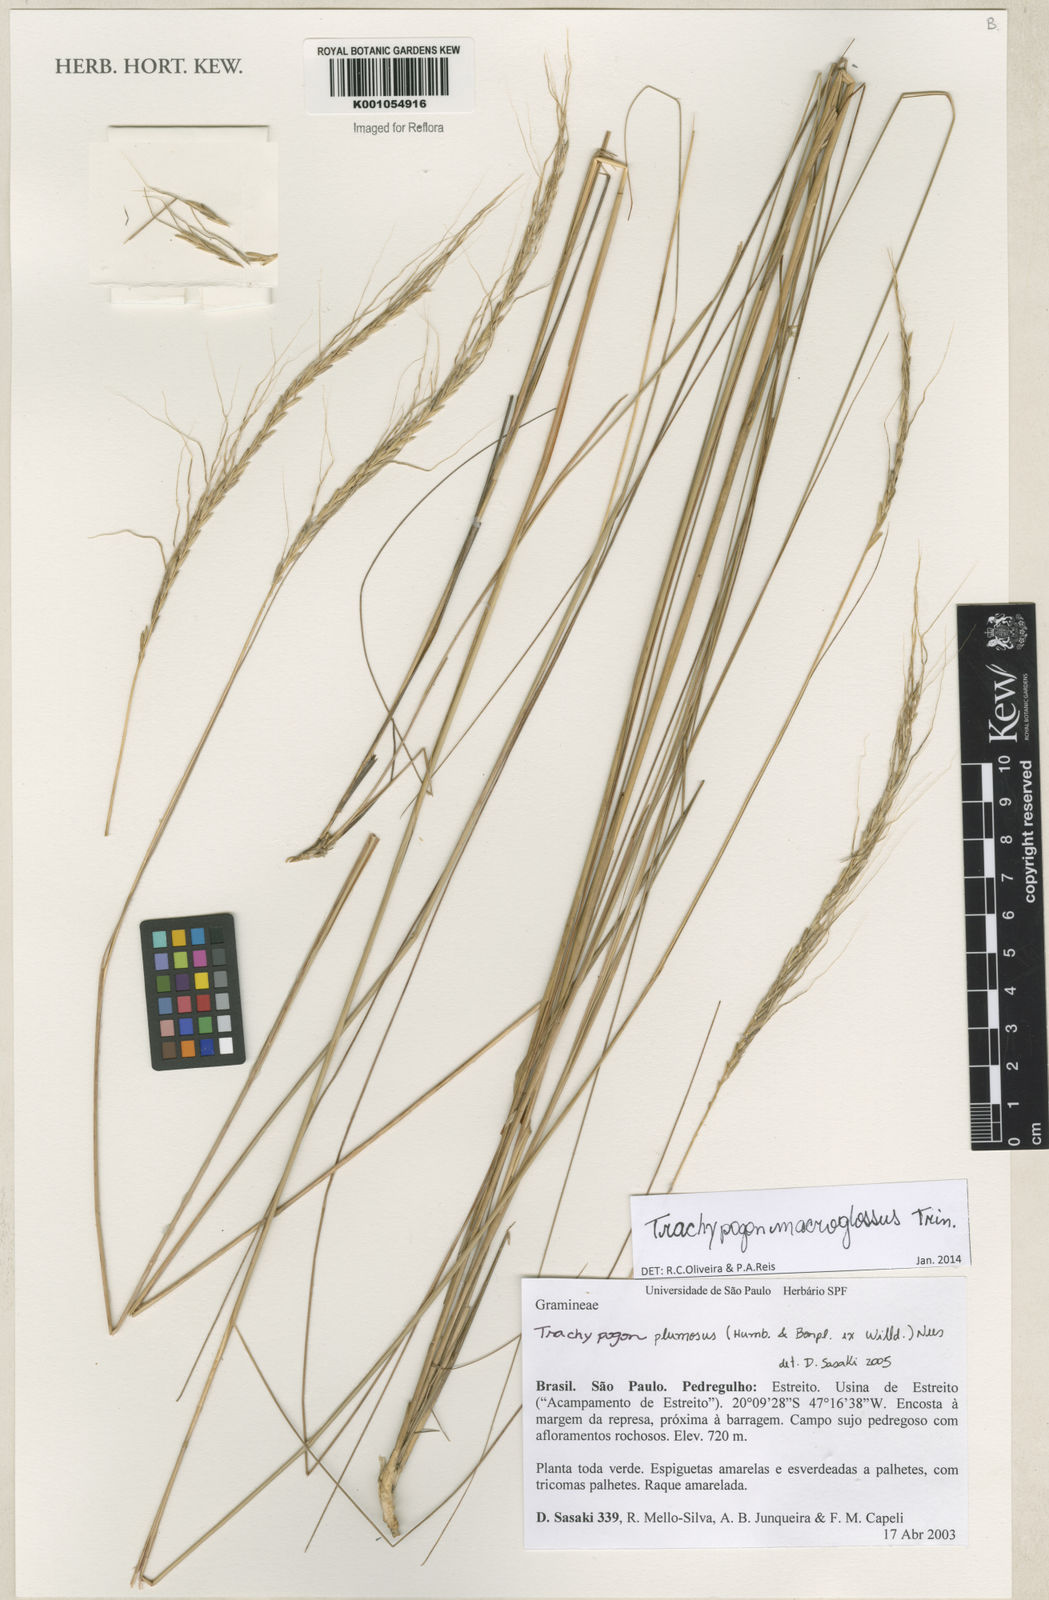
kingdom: Plantae
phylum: Tracheophyta
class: Liliopsida
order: Poales
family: Poaceae
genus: Trachypogon
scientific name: Trachypogon macroglossus
